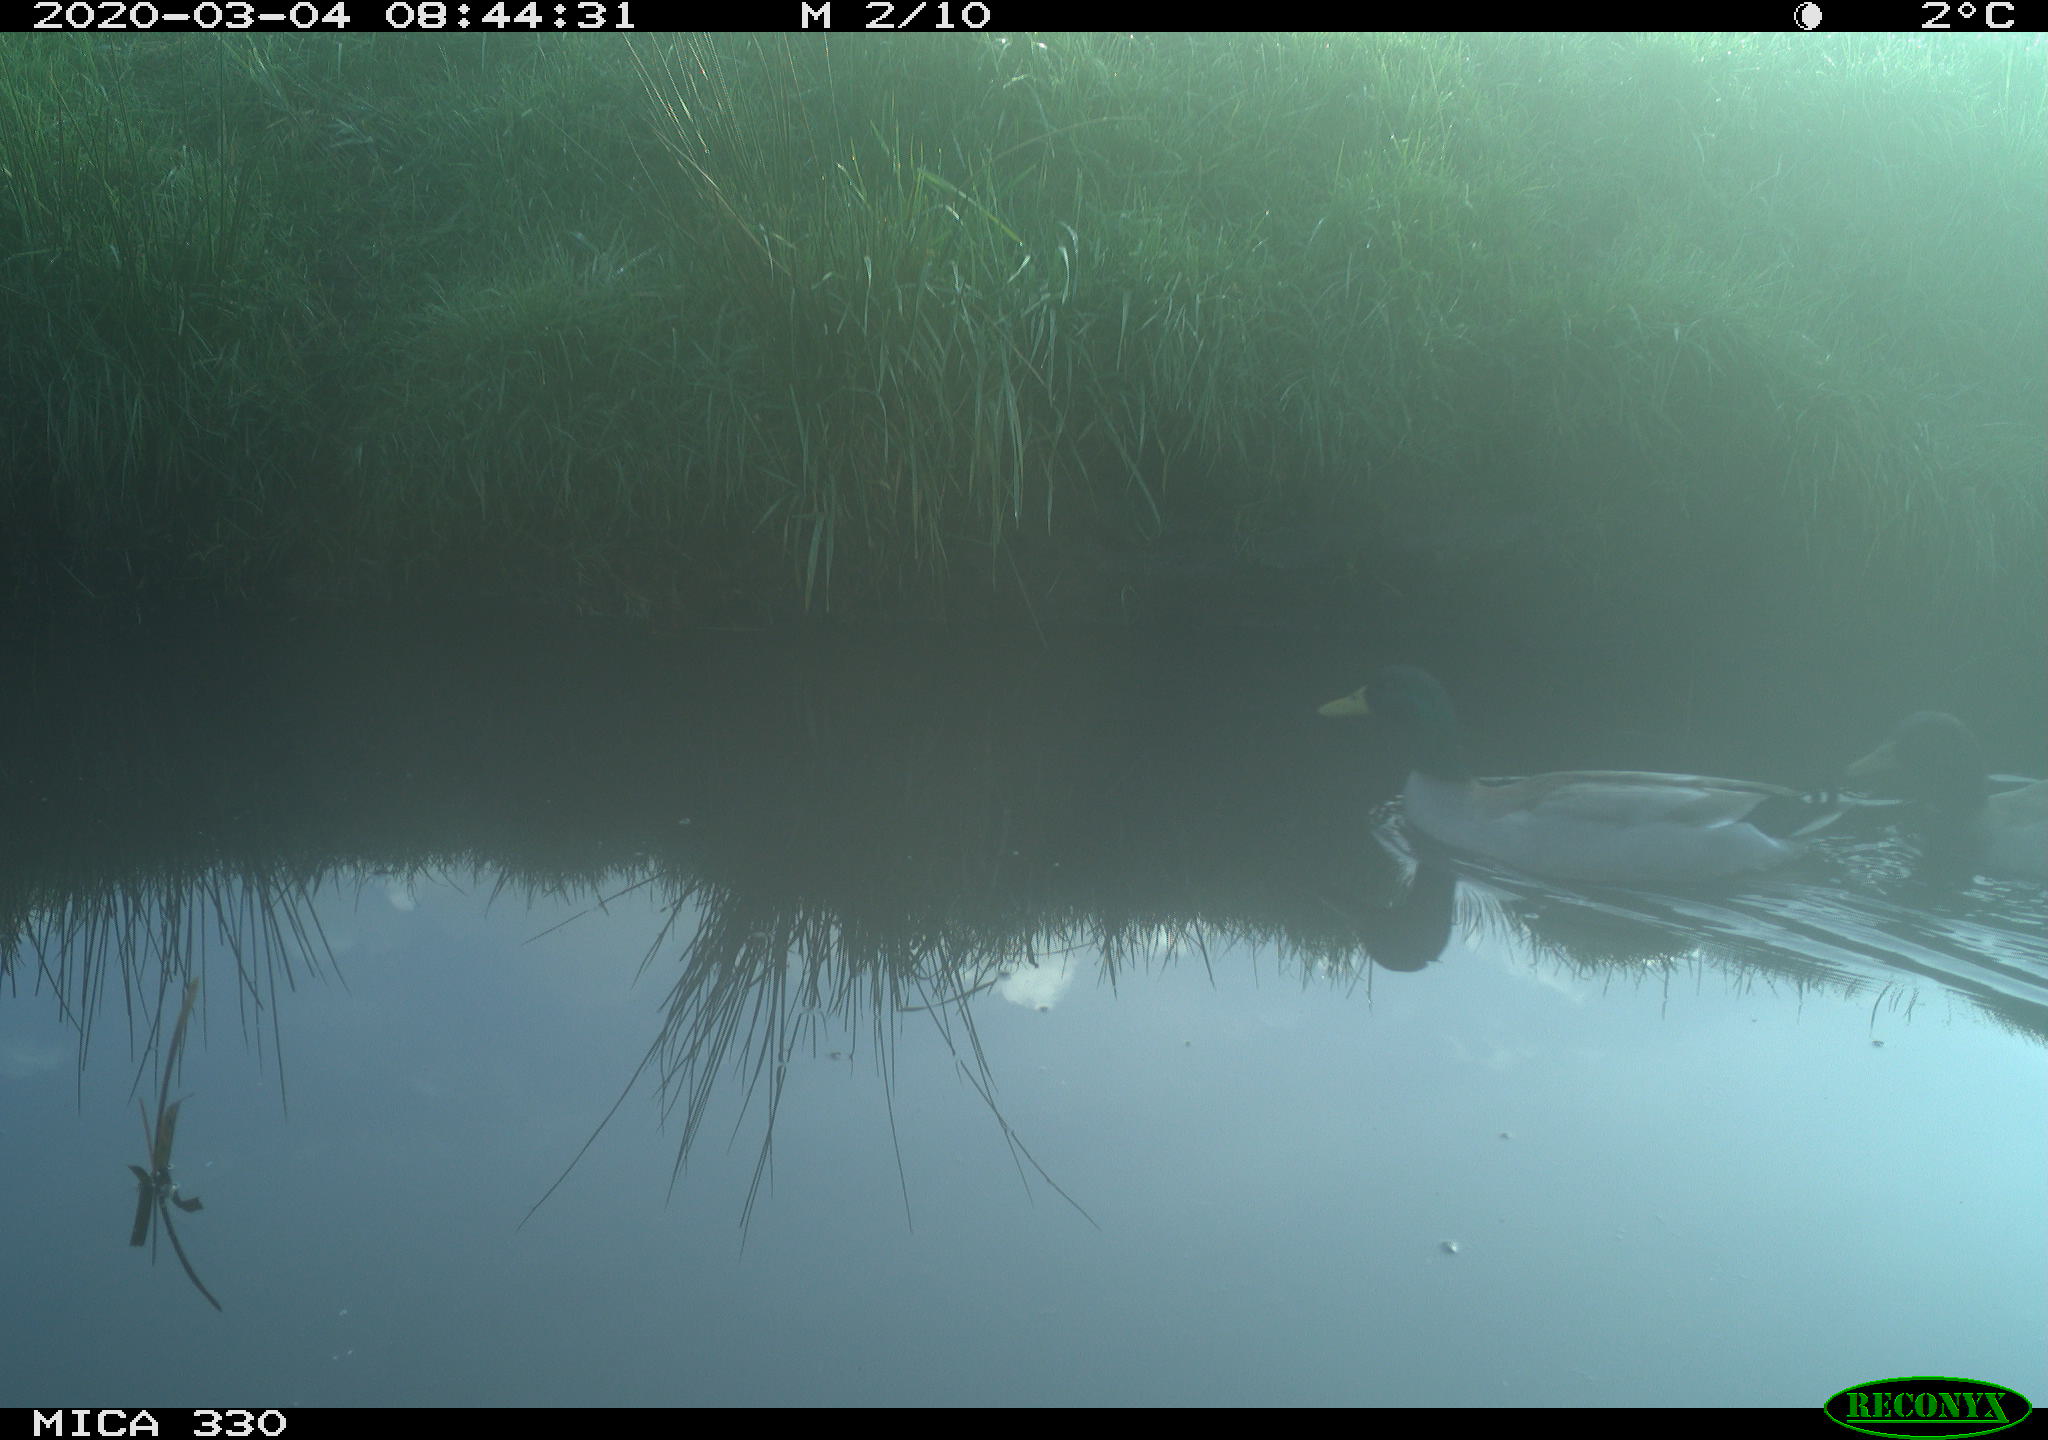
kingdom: Animalia
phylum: Chordata
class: Aves
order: Anseriformes
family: Anatidae
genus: Anas
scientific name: Anas platyrhynchos
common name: Mallard
